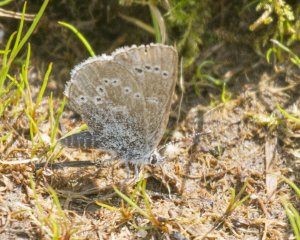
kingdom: Animalia
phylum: Arthropoda
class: Insecta
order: Lepidoptera
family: Lycaenidae
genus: Glaucopsyche
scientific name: Glaucopsyche lygdamus
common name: Silvery Blue
